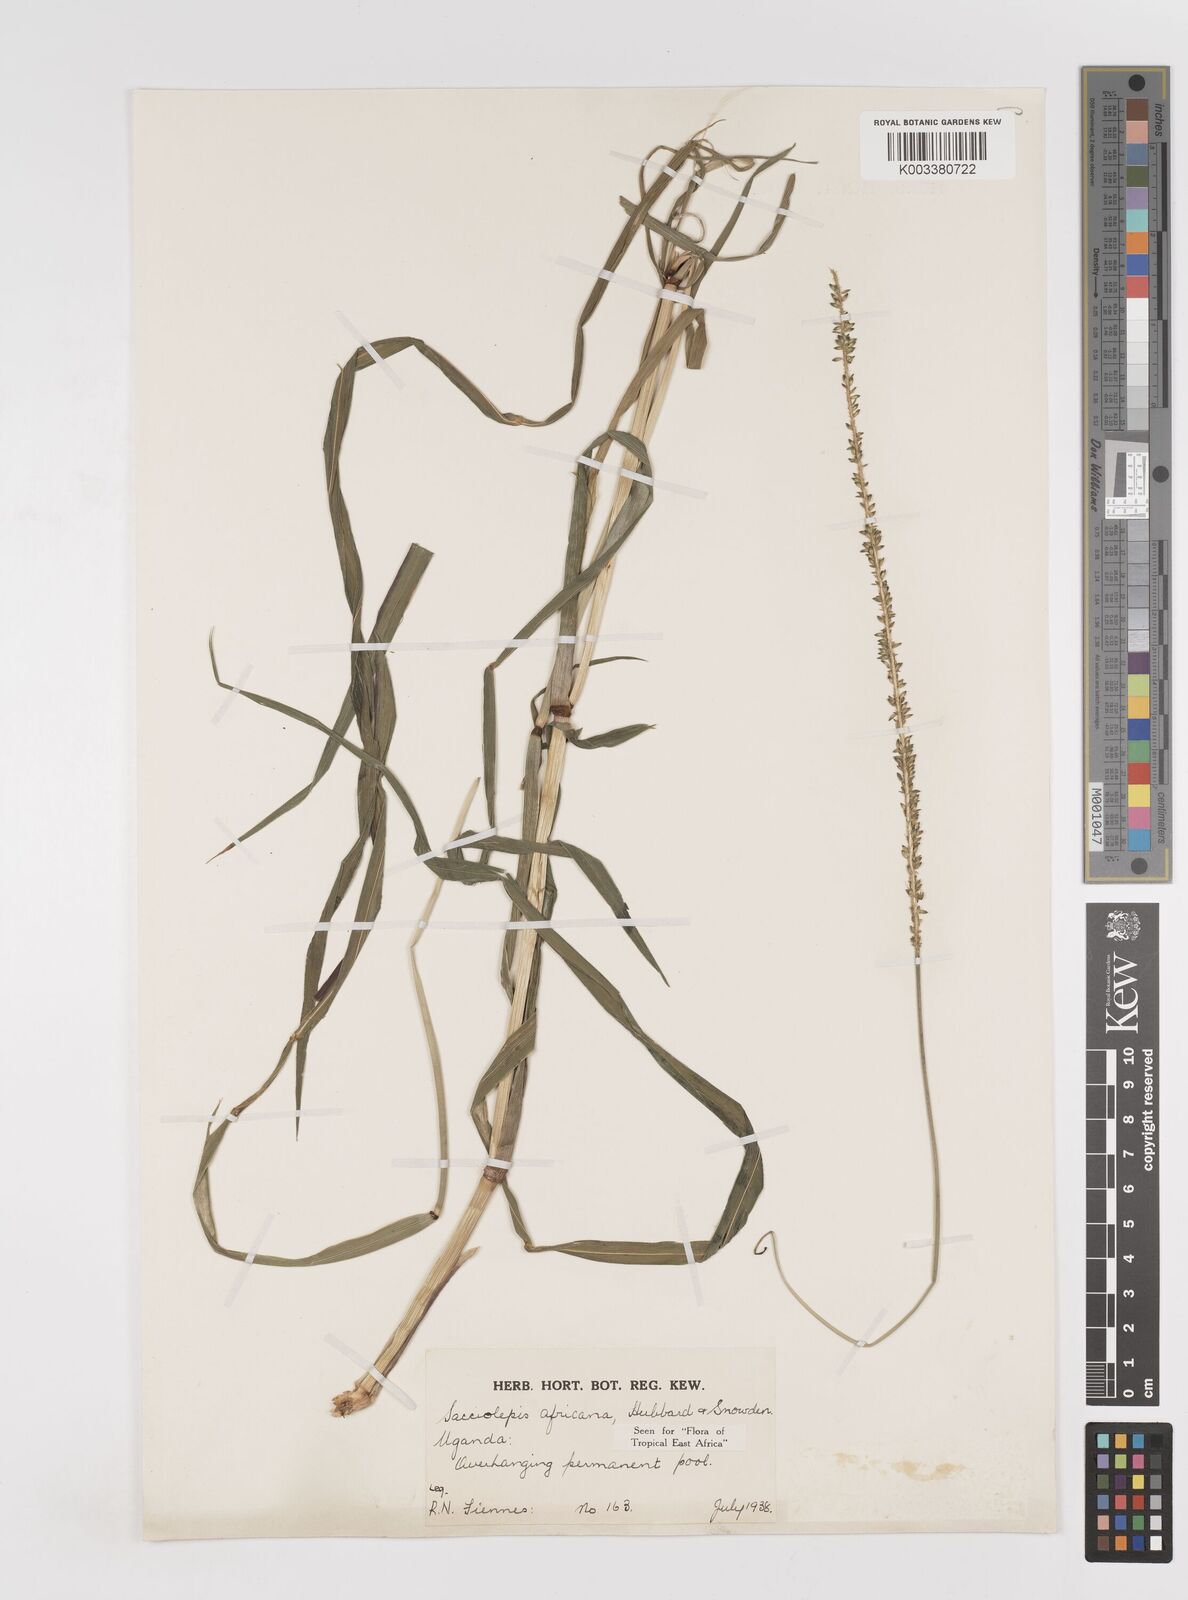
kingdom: Plantae
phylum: Tracheophyta
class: Liliopsida
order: Poales
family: Poaceae
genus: Sacciolepis
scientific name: Sacciolepis africana
